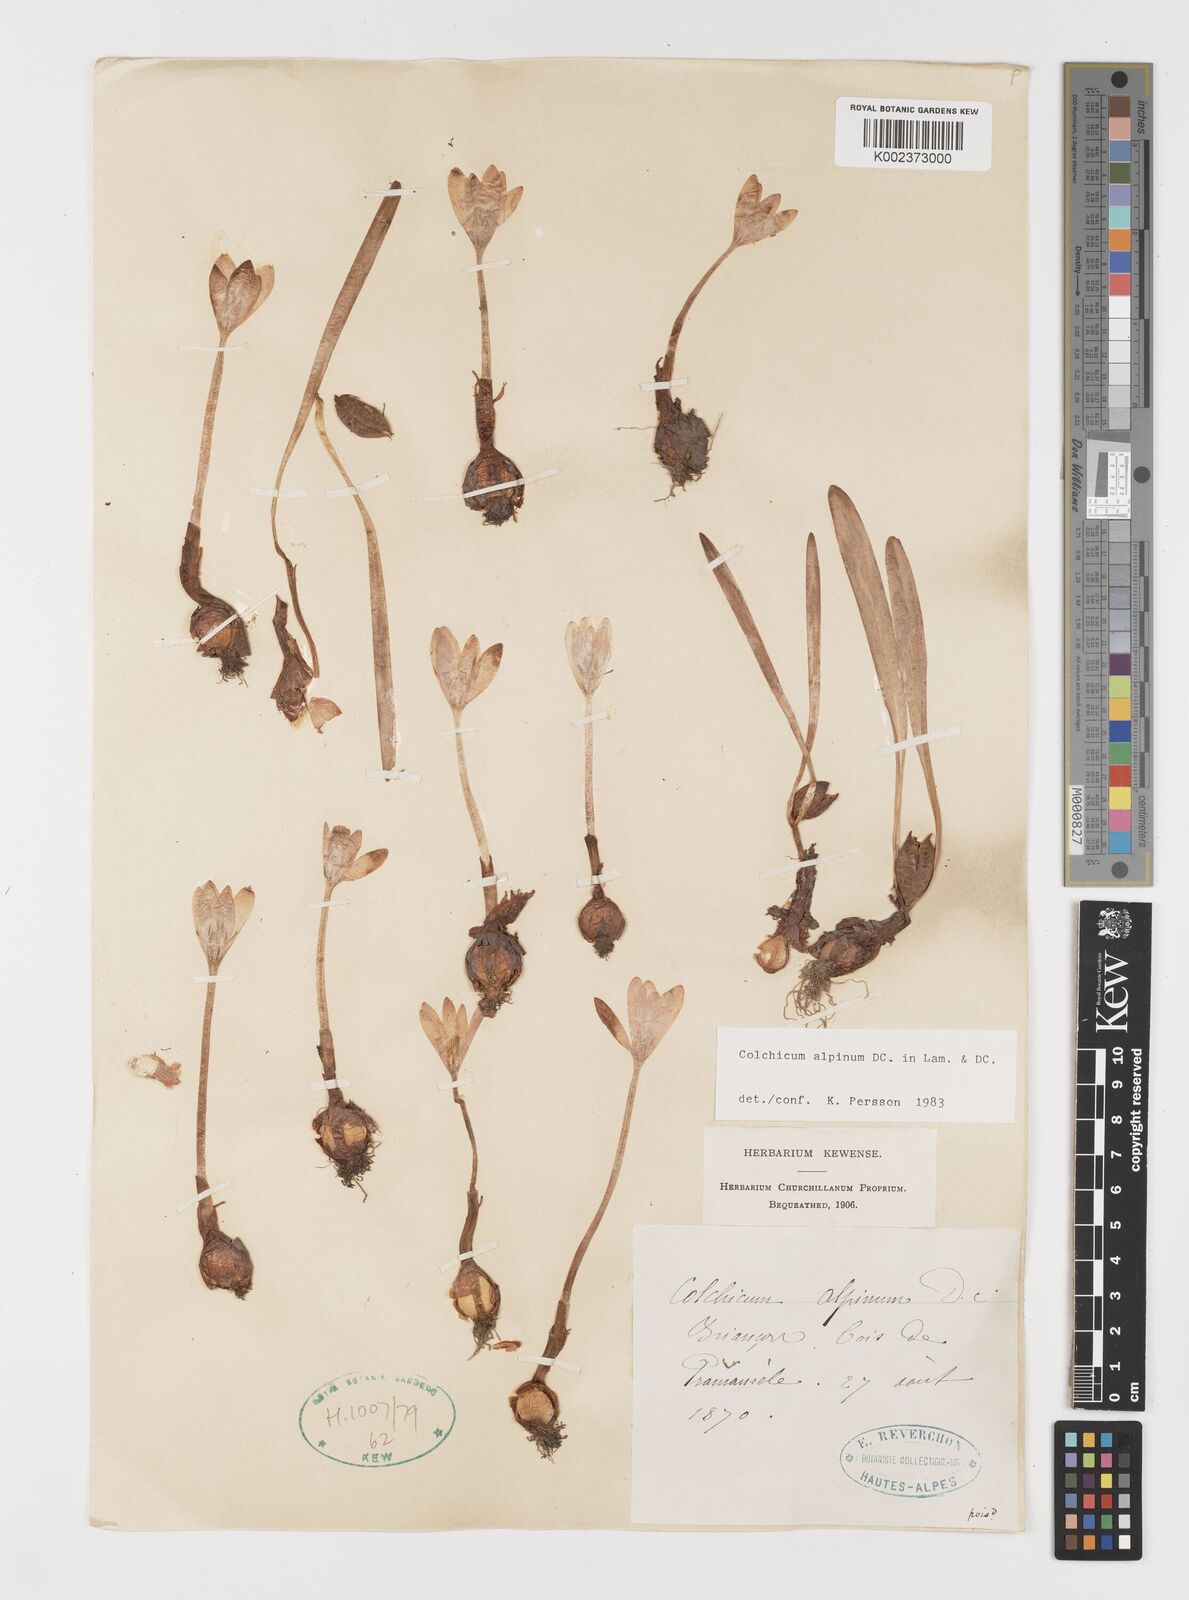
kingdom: Plantae
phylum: Tracheophyta
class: Liliopsida
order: Liliales
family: Colchicaceae
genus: Colchicum
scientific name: Colchicum alpinum
